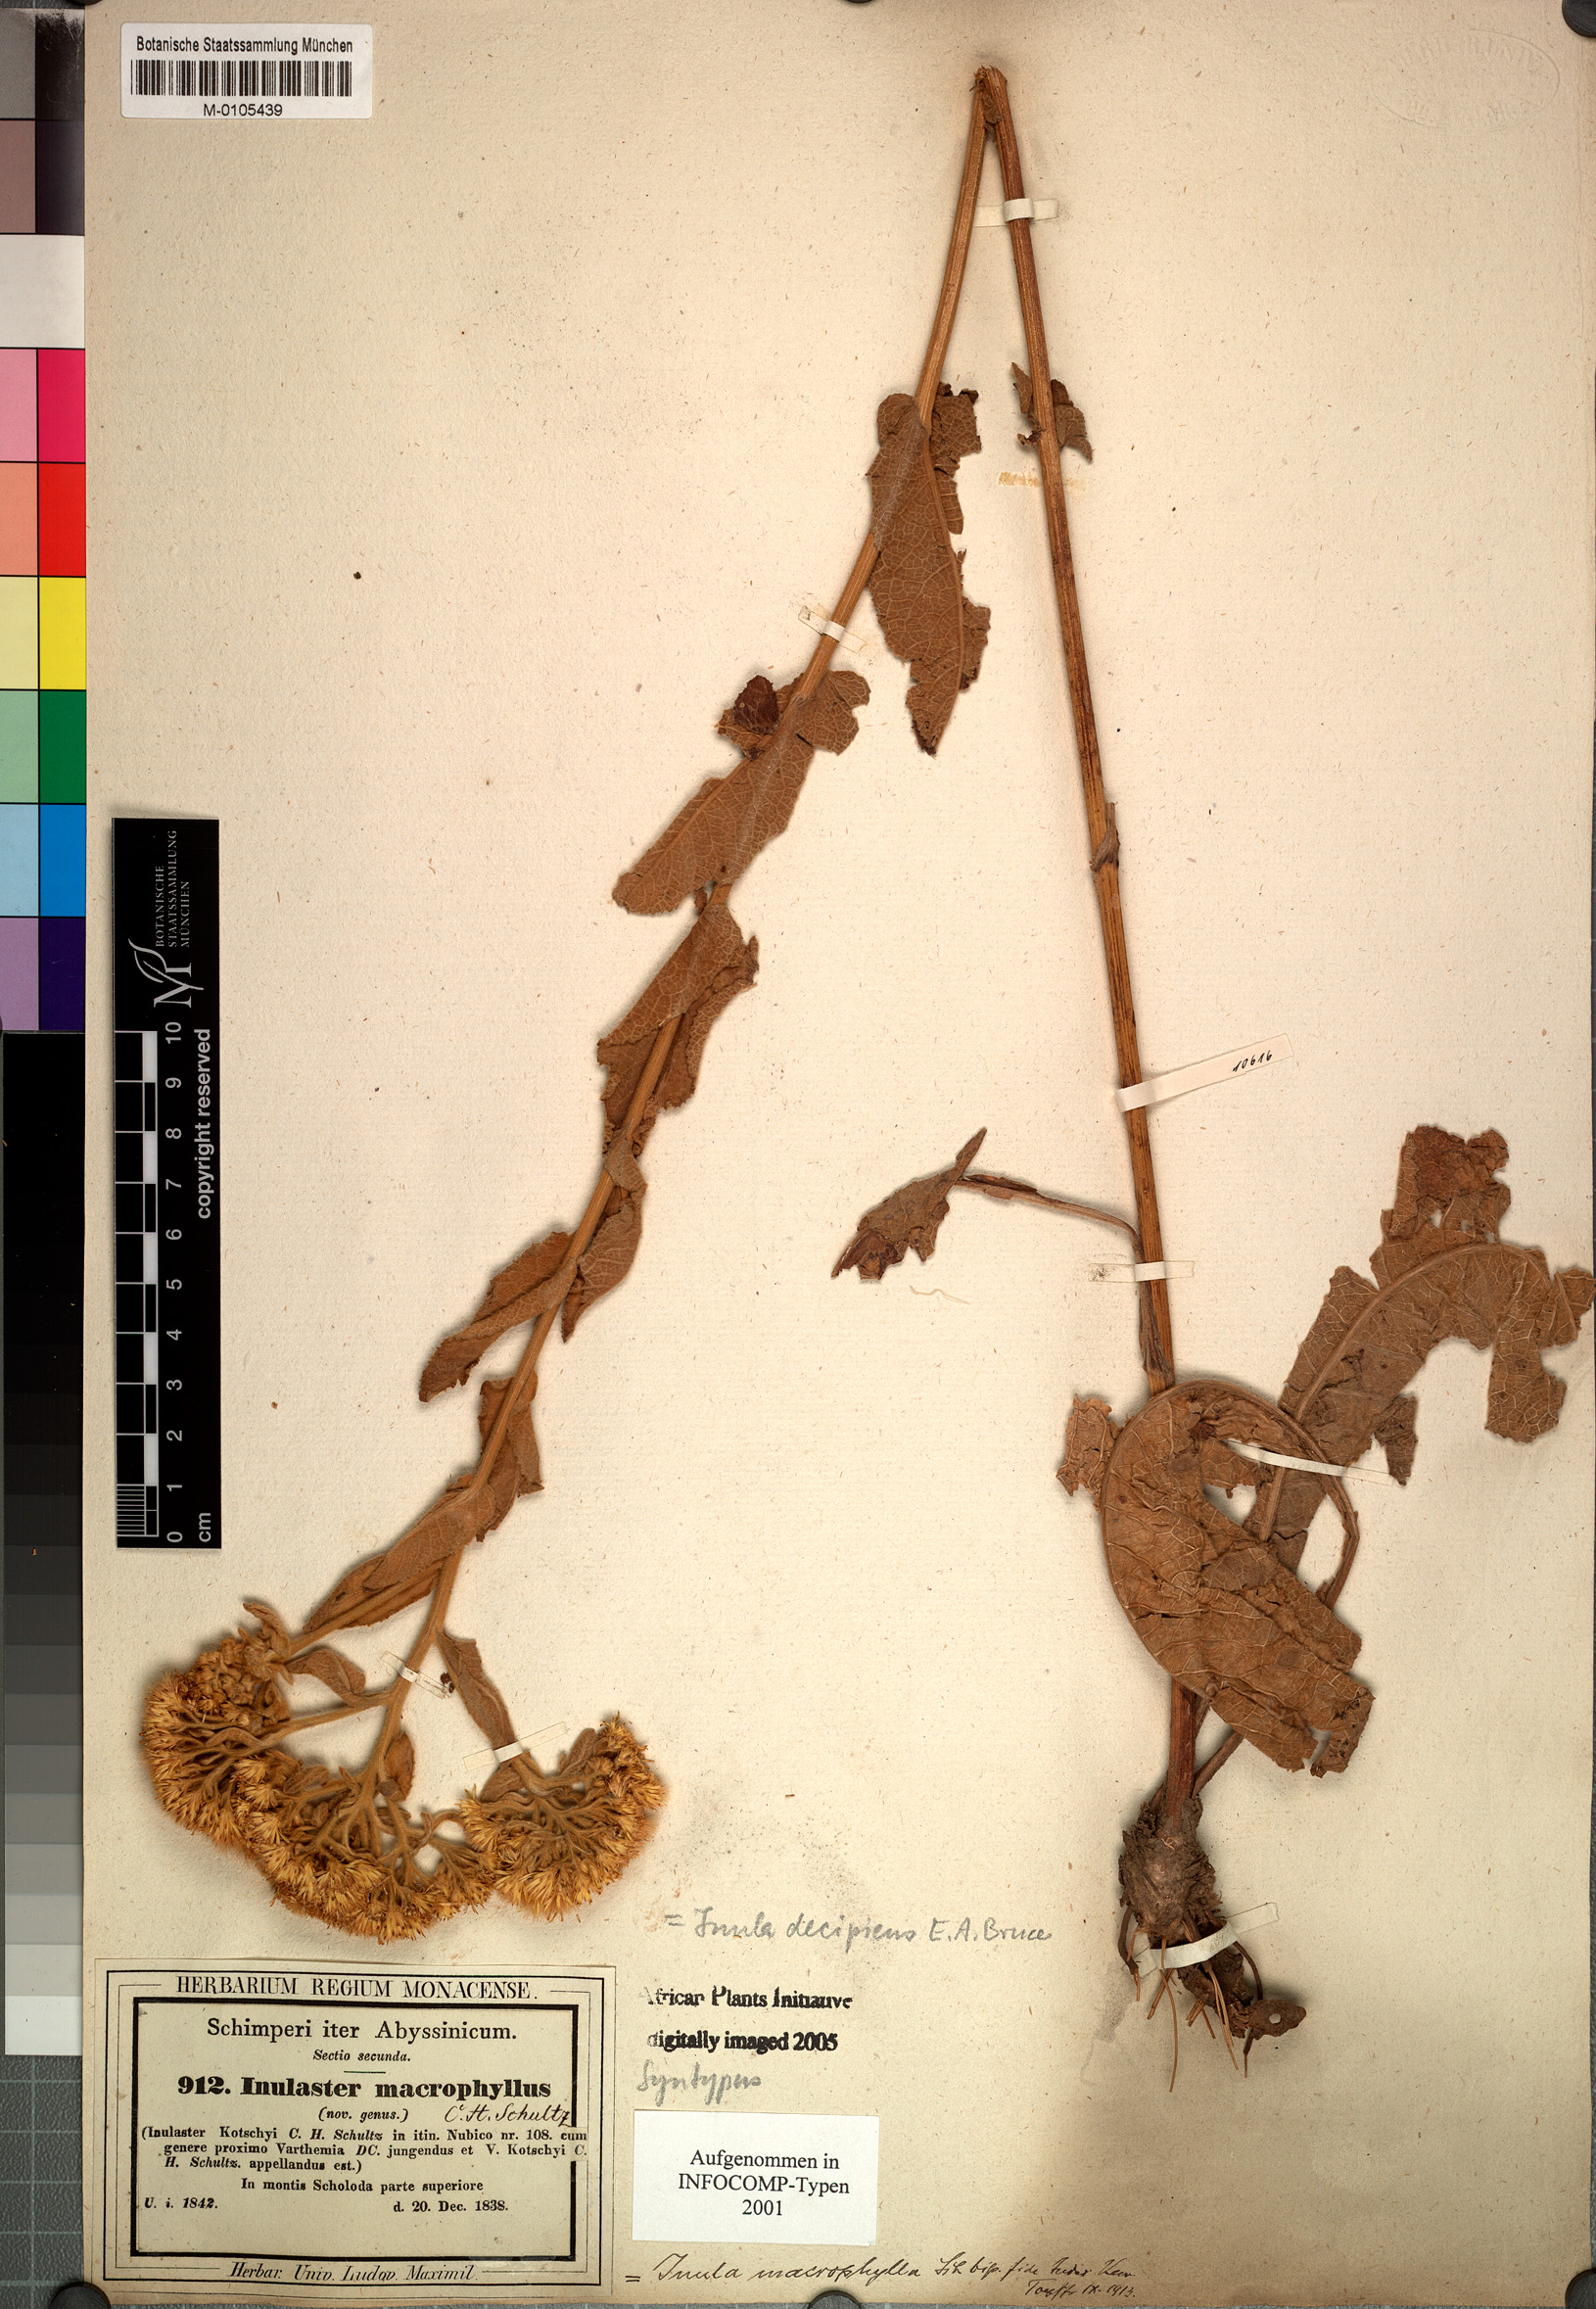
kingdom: Plantae
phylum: Tracheophyta
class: Magnoliopsida
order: Asterales
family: Asteraceae
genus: Monactinocephalus
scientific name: Monactinocephalus paniculatus
